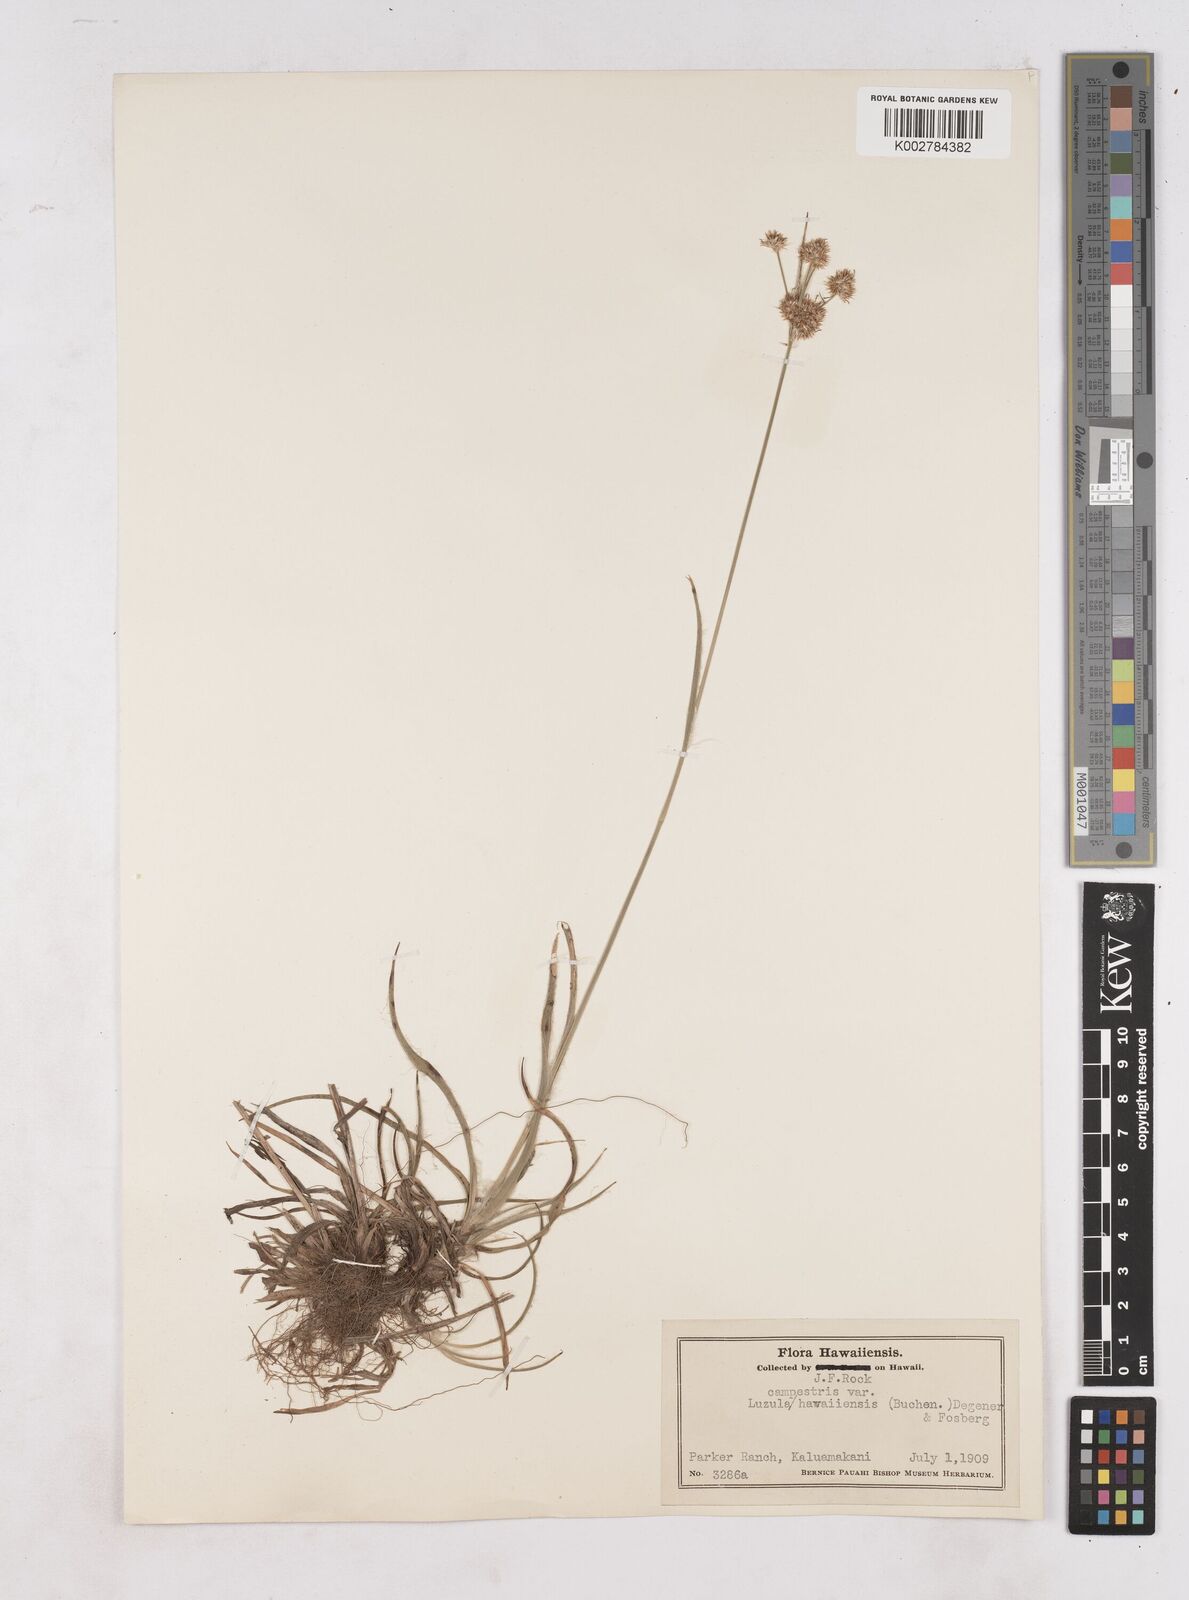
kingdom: Plantae
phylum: Tracheophyta
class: Liliopsida
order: Poales
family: Juncaceae
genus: Luzula
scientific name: Luzula campestris
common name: Field wood-rush
